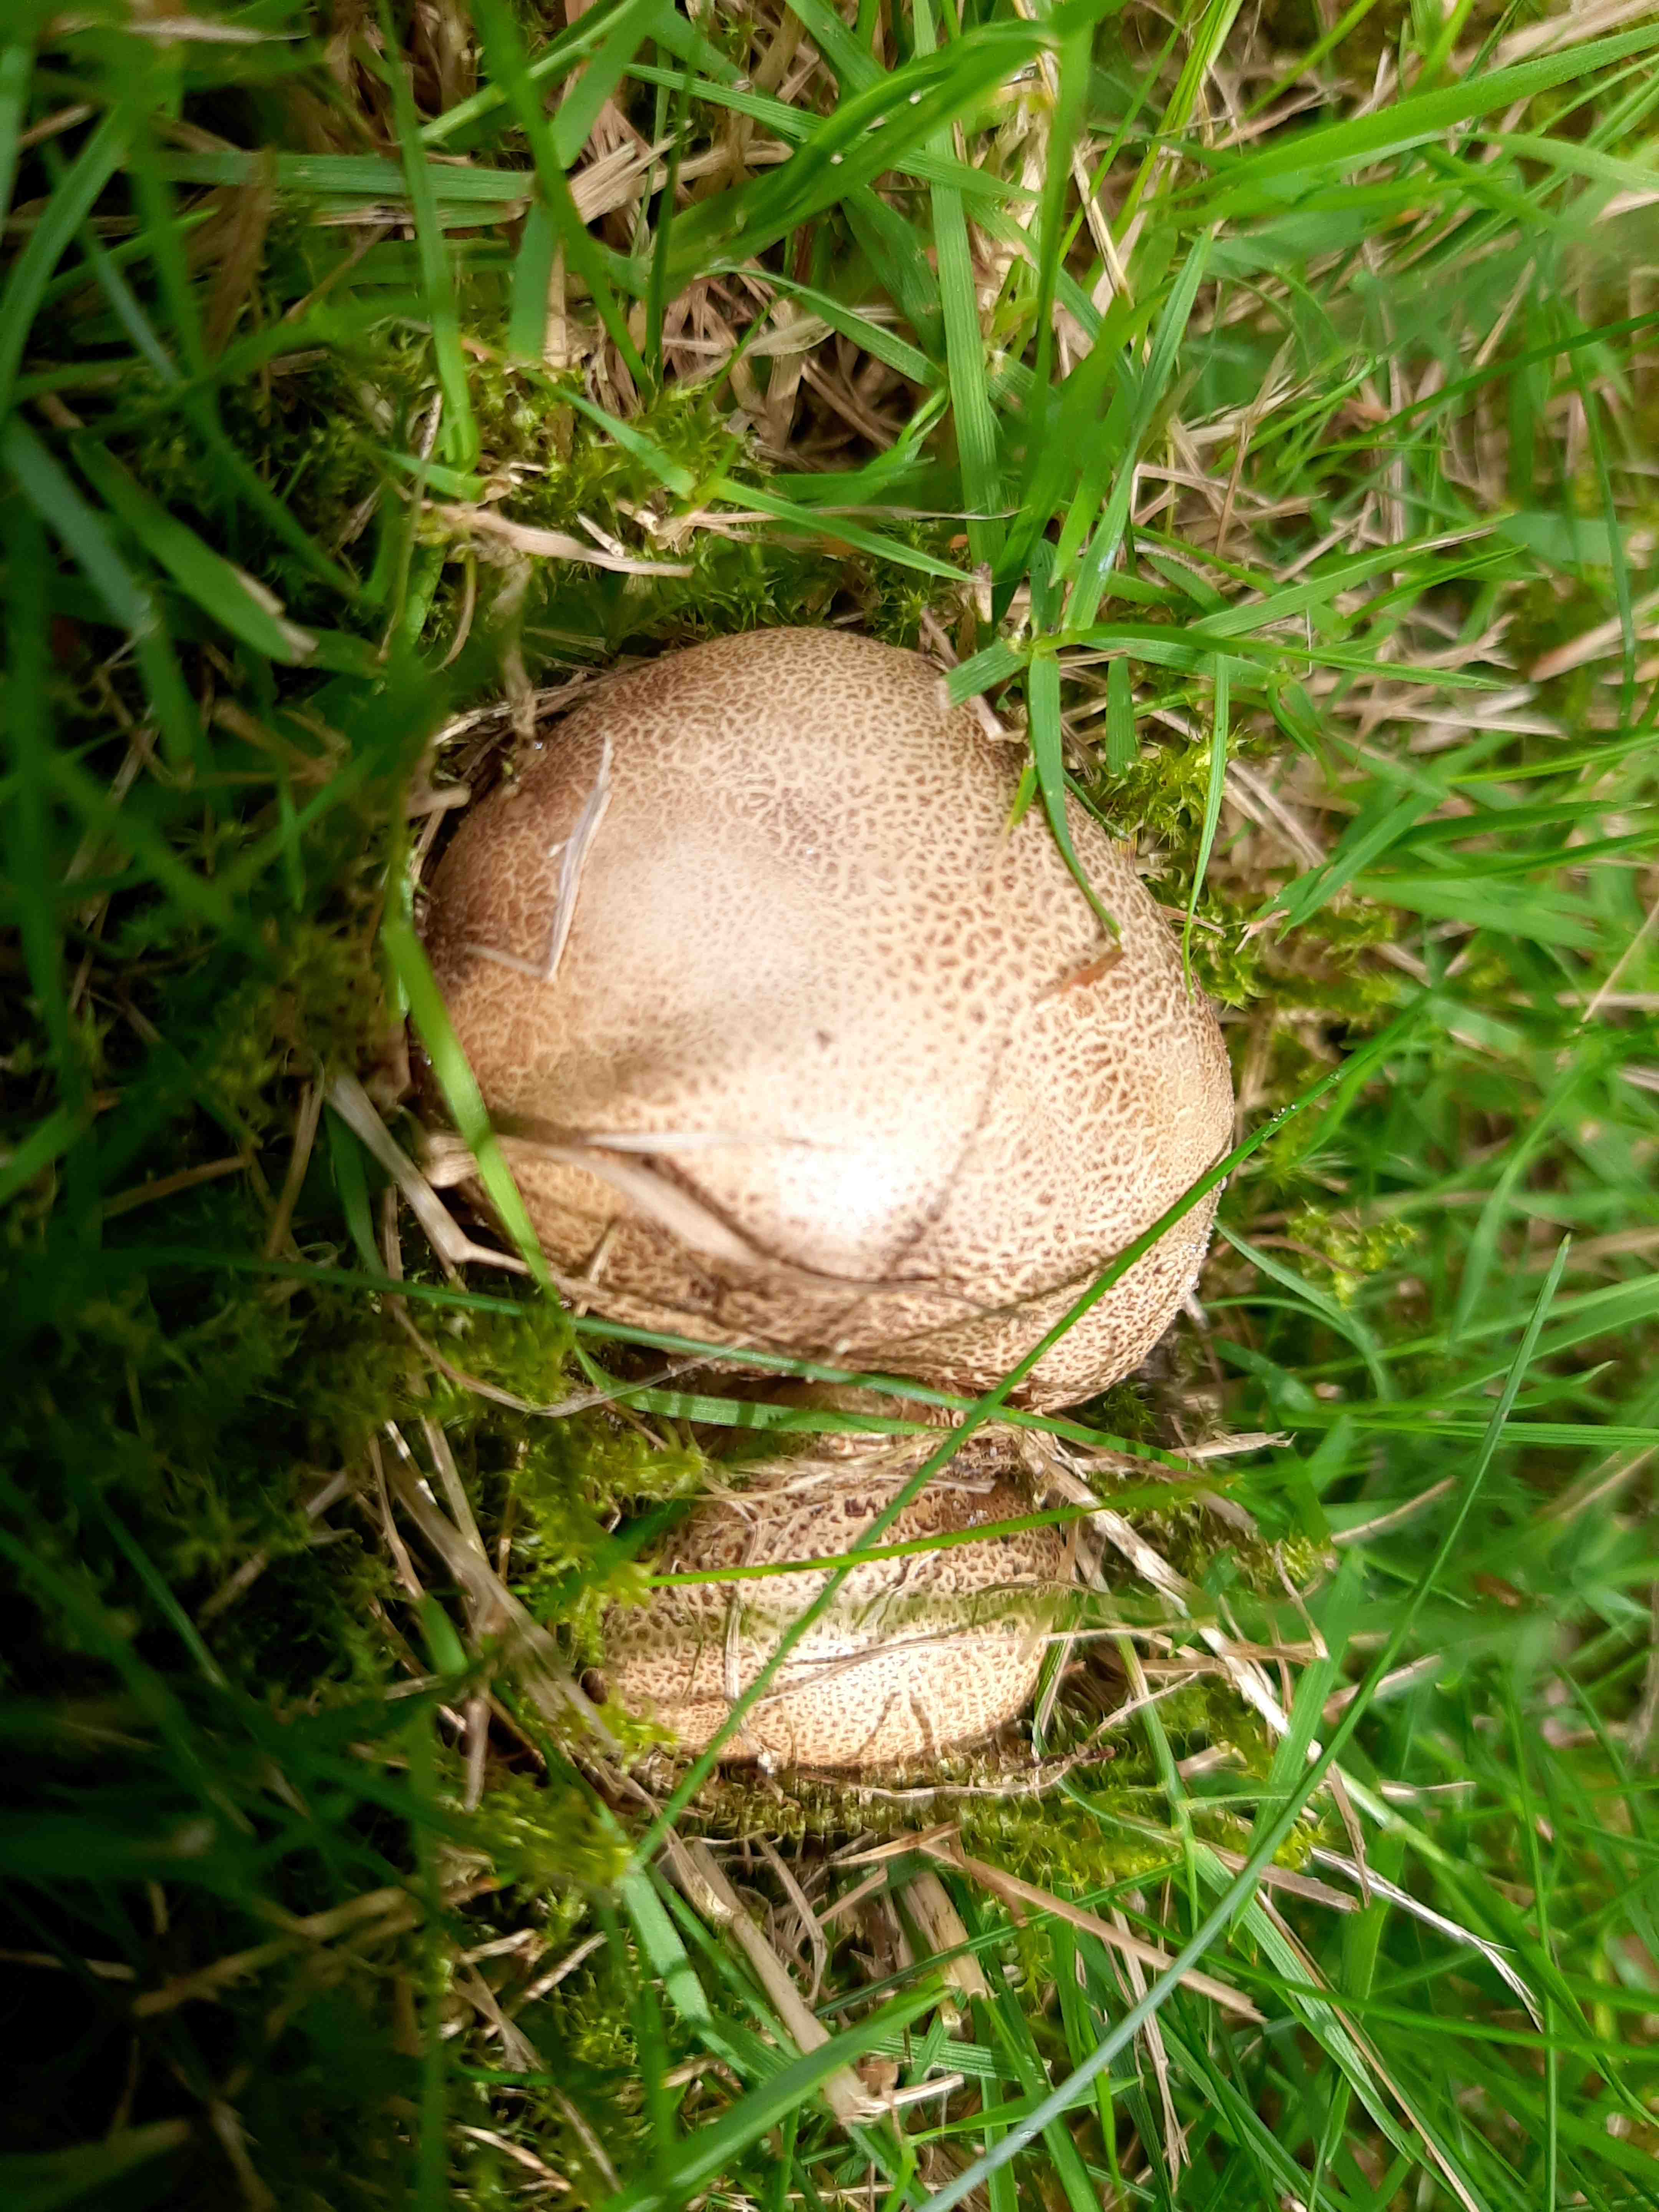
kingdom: Fungi
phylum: Basidiomycota
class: Agaricomycetes
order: Boletales
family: Sclerodermataceae
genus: Scleroderma
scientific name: Scleroderma citrinum
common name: almindelig bruskbold
